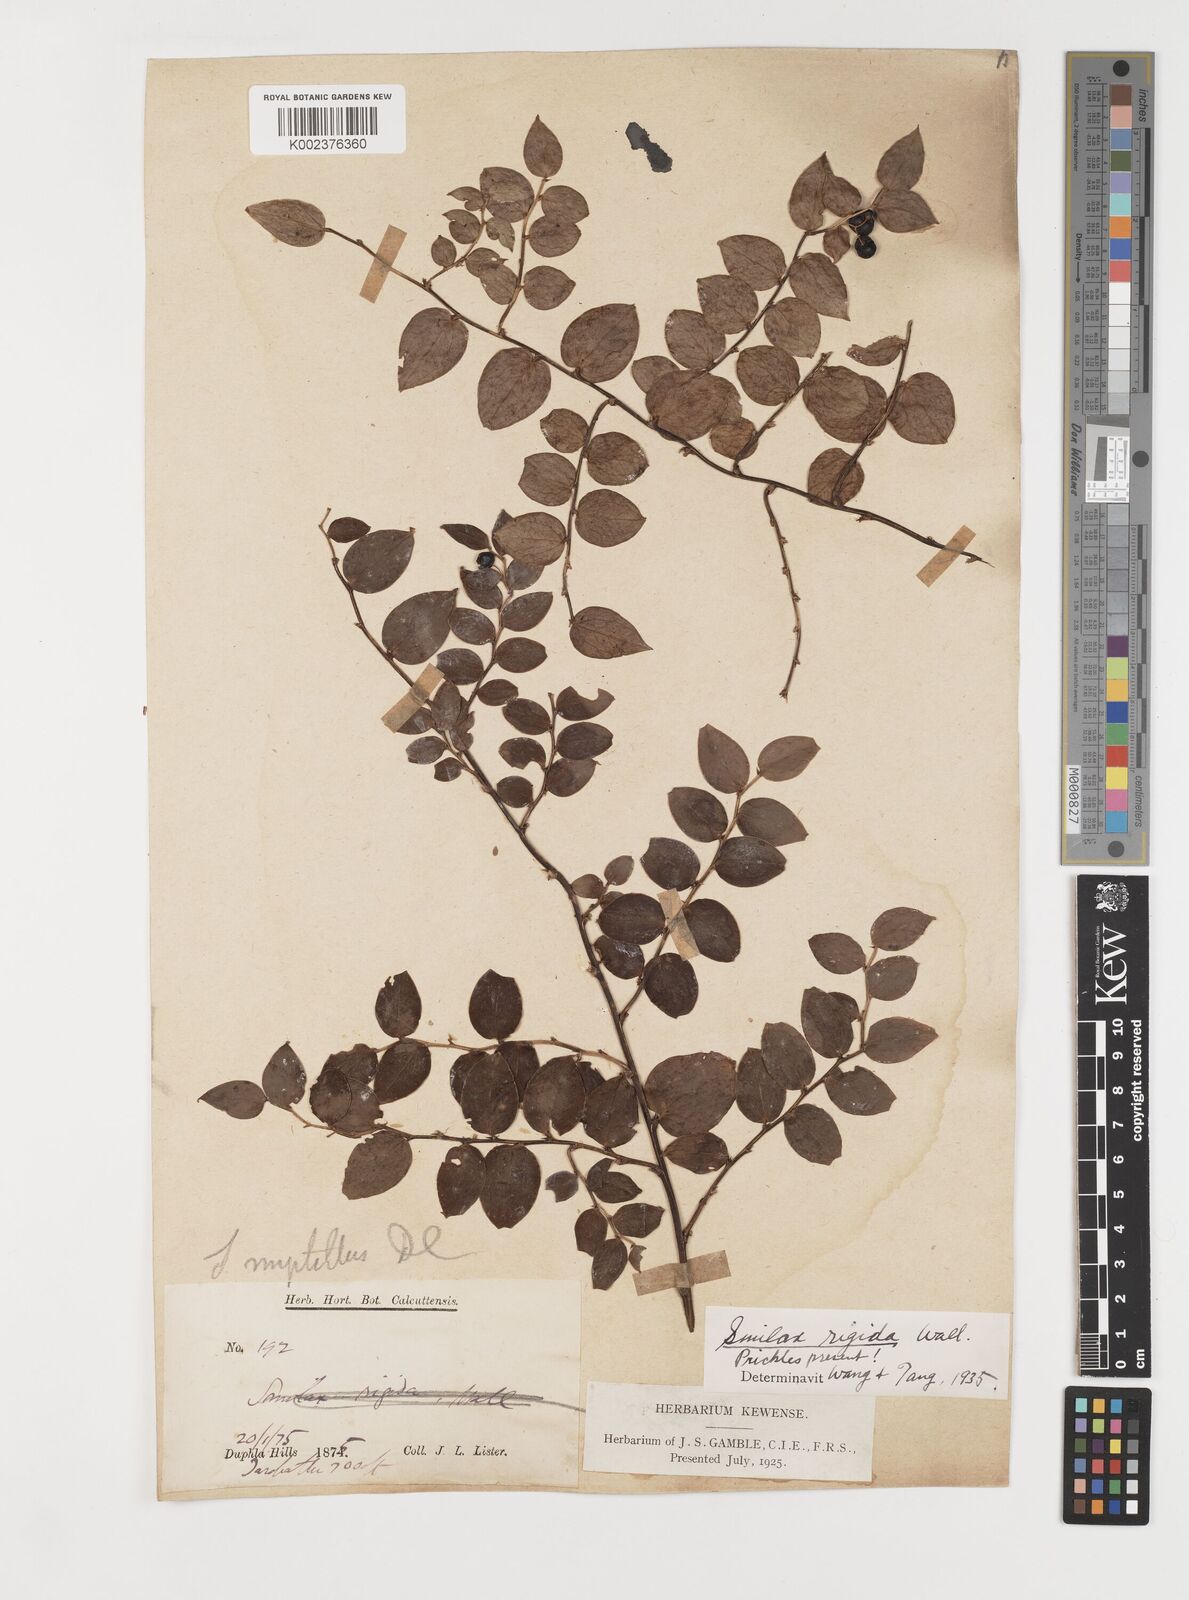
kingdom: Plantae
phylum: Tracheophyta
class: Liliopsida
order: Liliales
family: Smilacaceae
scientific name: Smilacaceae
